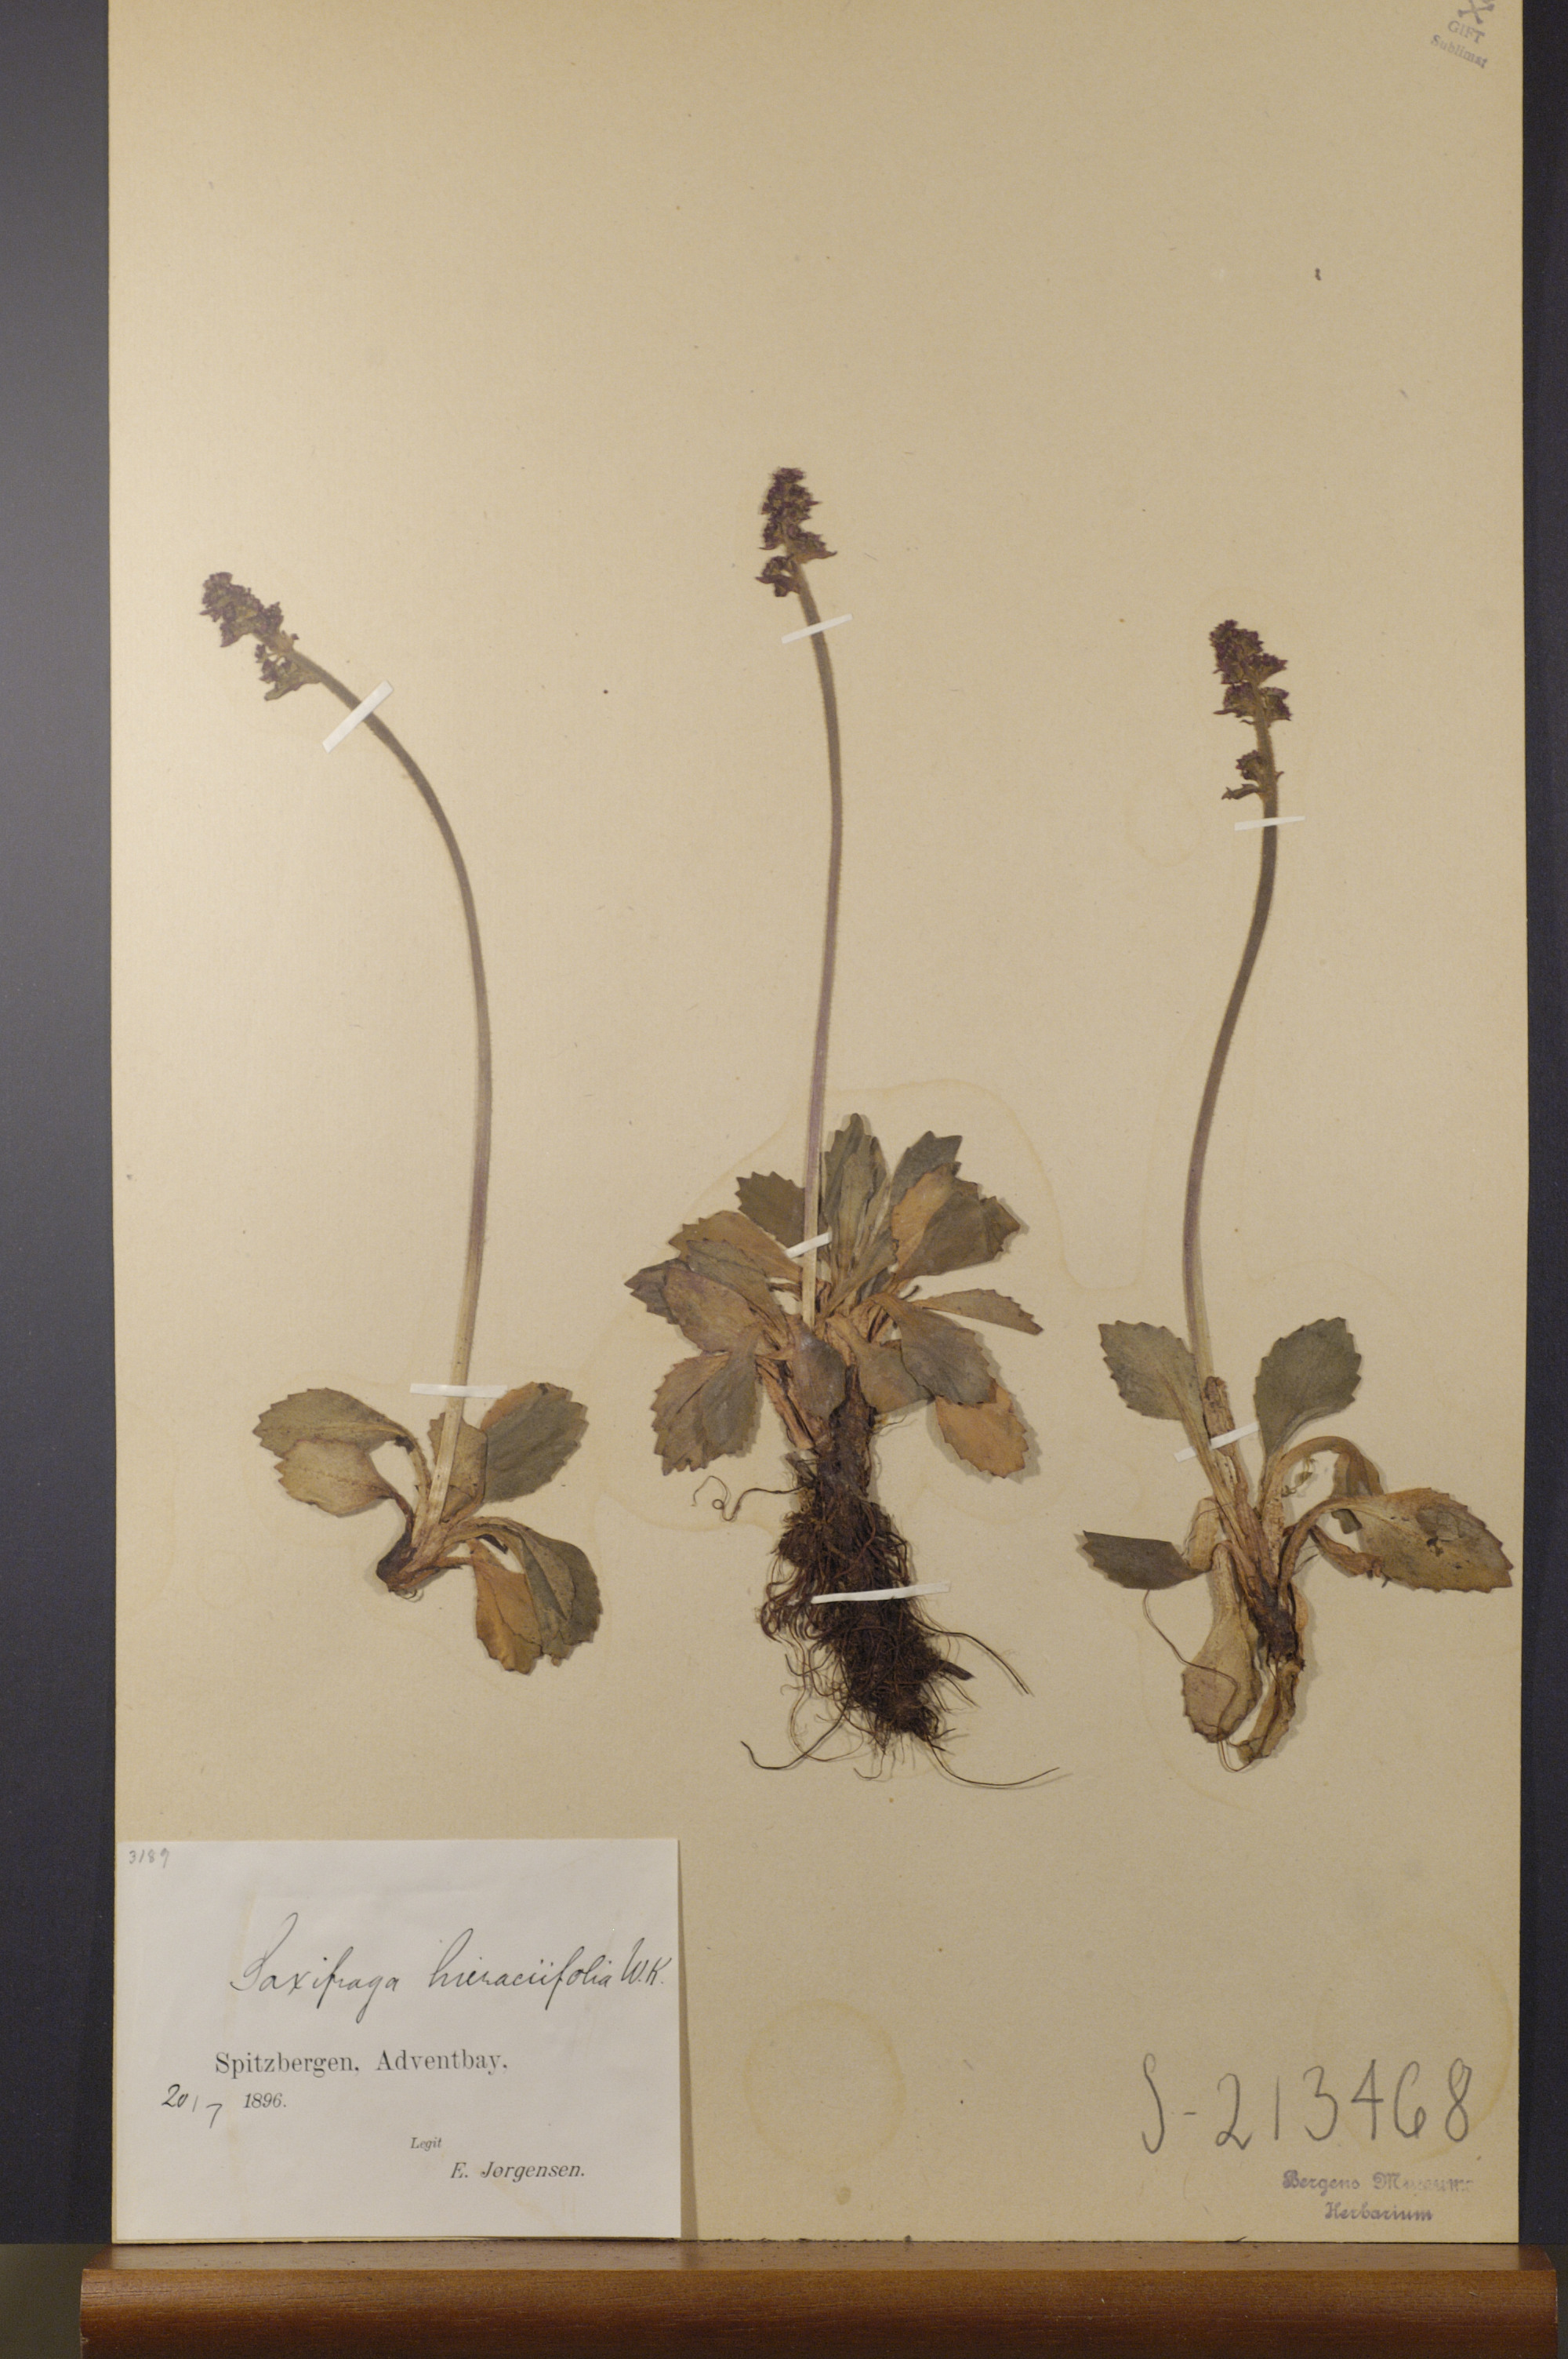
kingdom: Plantae
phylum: Tracheophyta
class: Magnoliopsida
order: Saxifragales
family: Saxifragaceae
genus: Micranthes
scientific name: Micranthes hieraciifolia
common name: Hawkweed-leaved saxifrage
